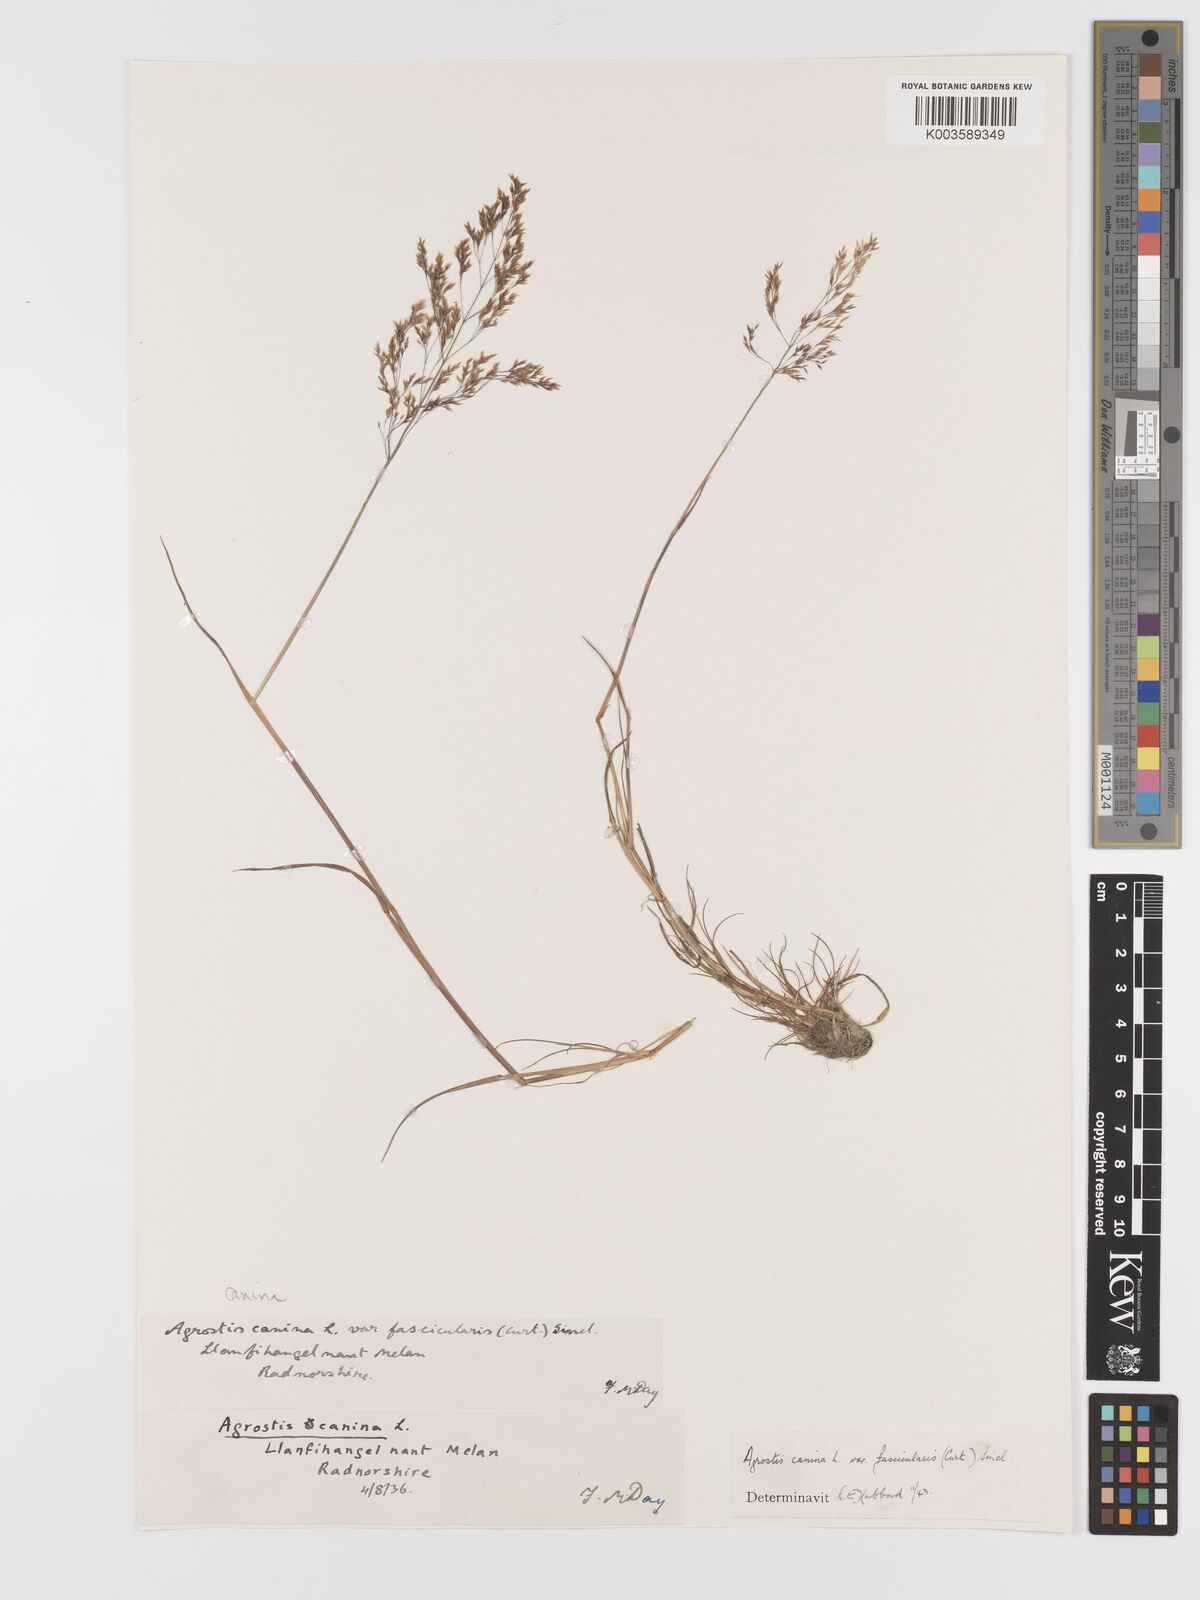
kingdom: Plantae
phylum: Tracheophyta
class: Liliopsida
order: Poales
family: Poaceae
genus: Agrostis
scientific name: Agrostis canina
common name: Velvet bent
